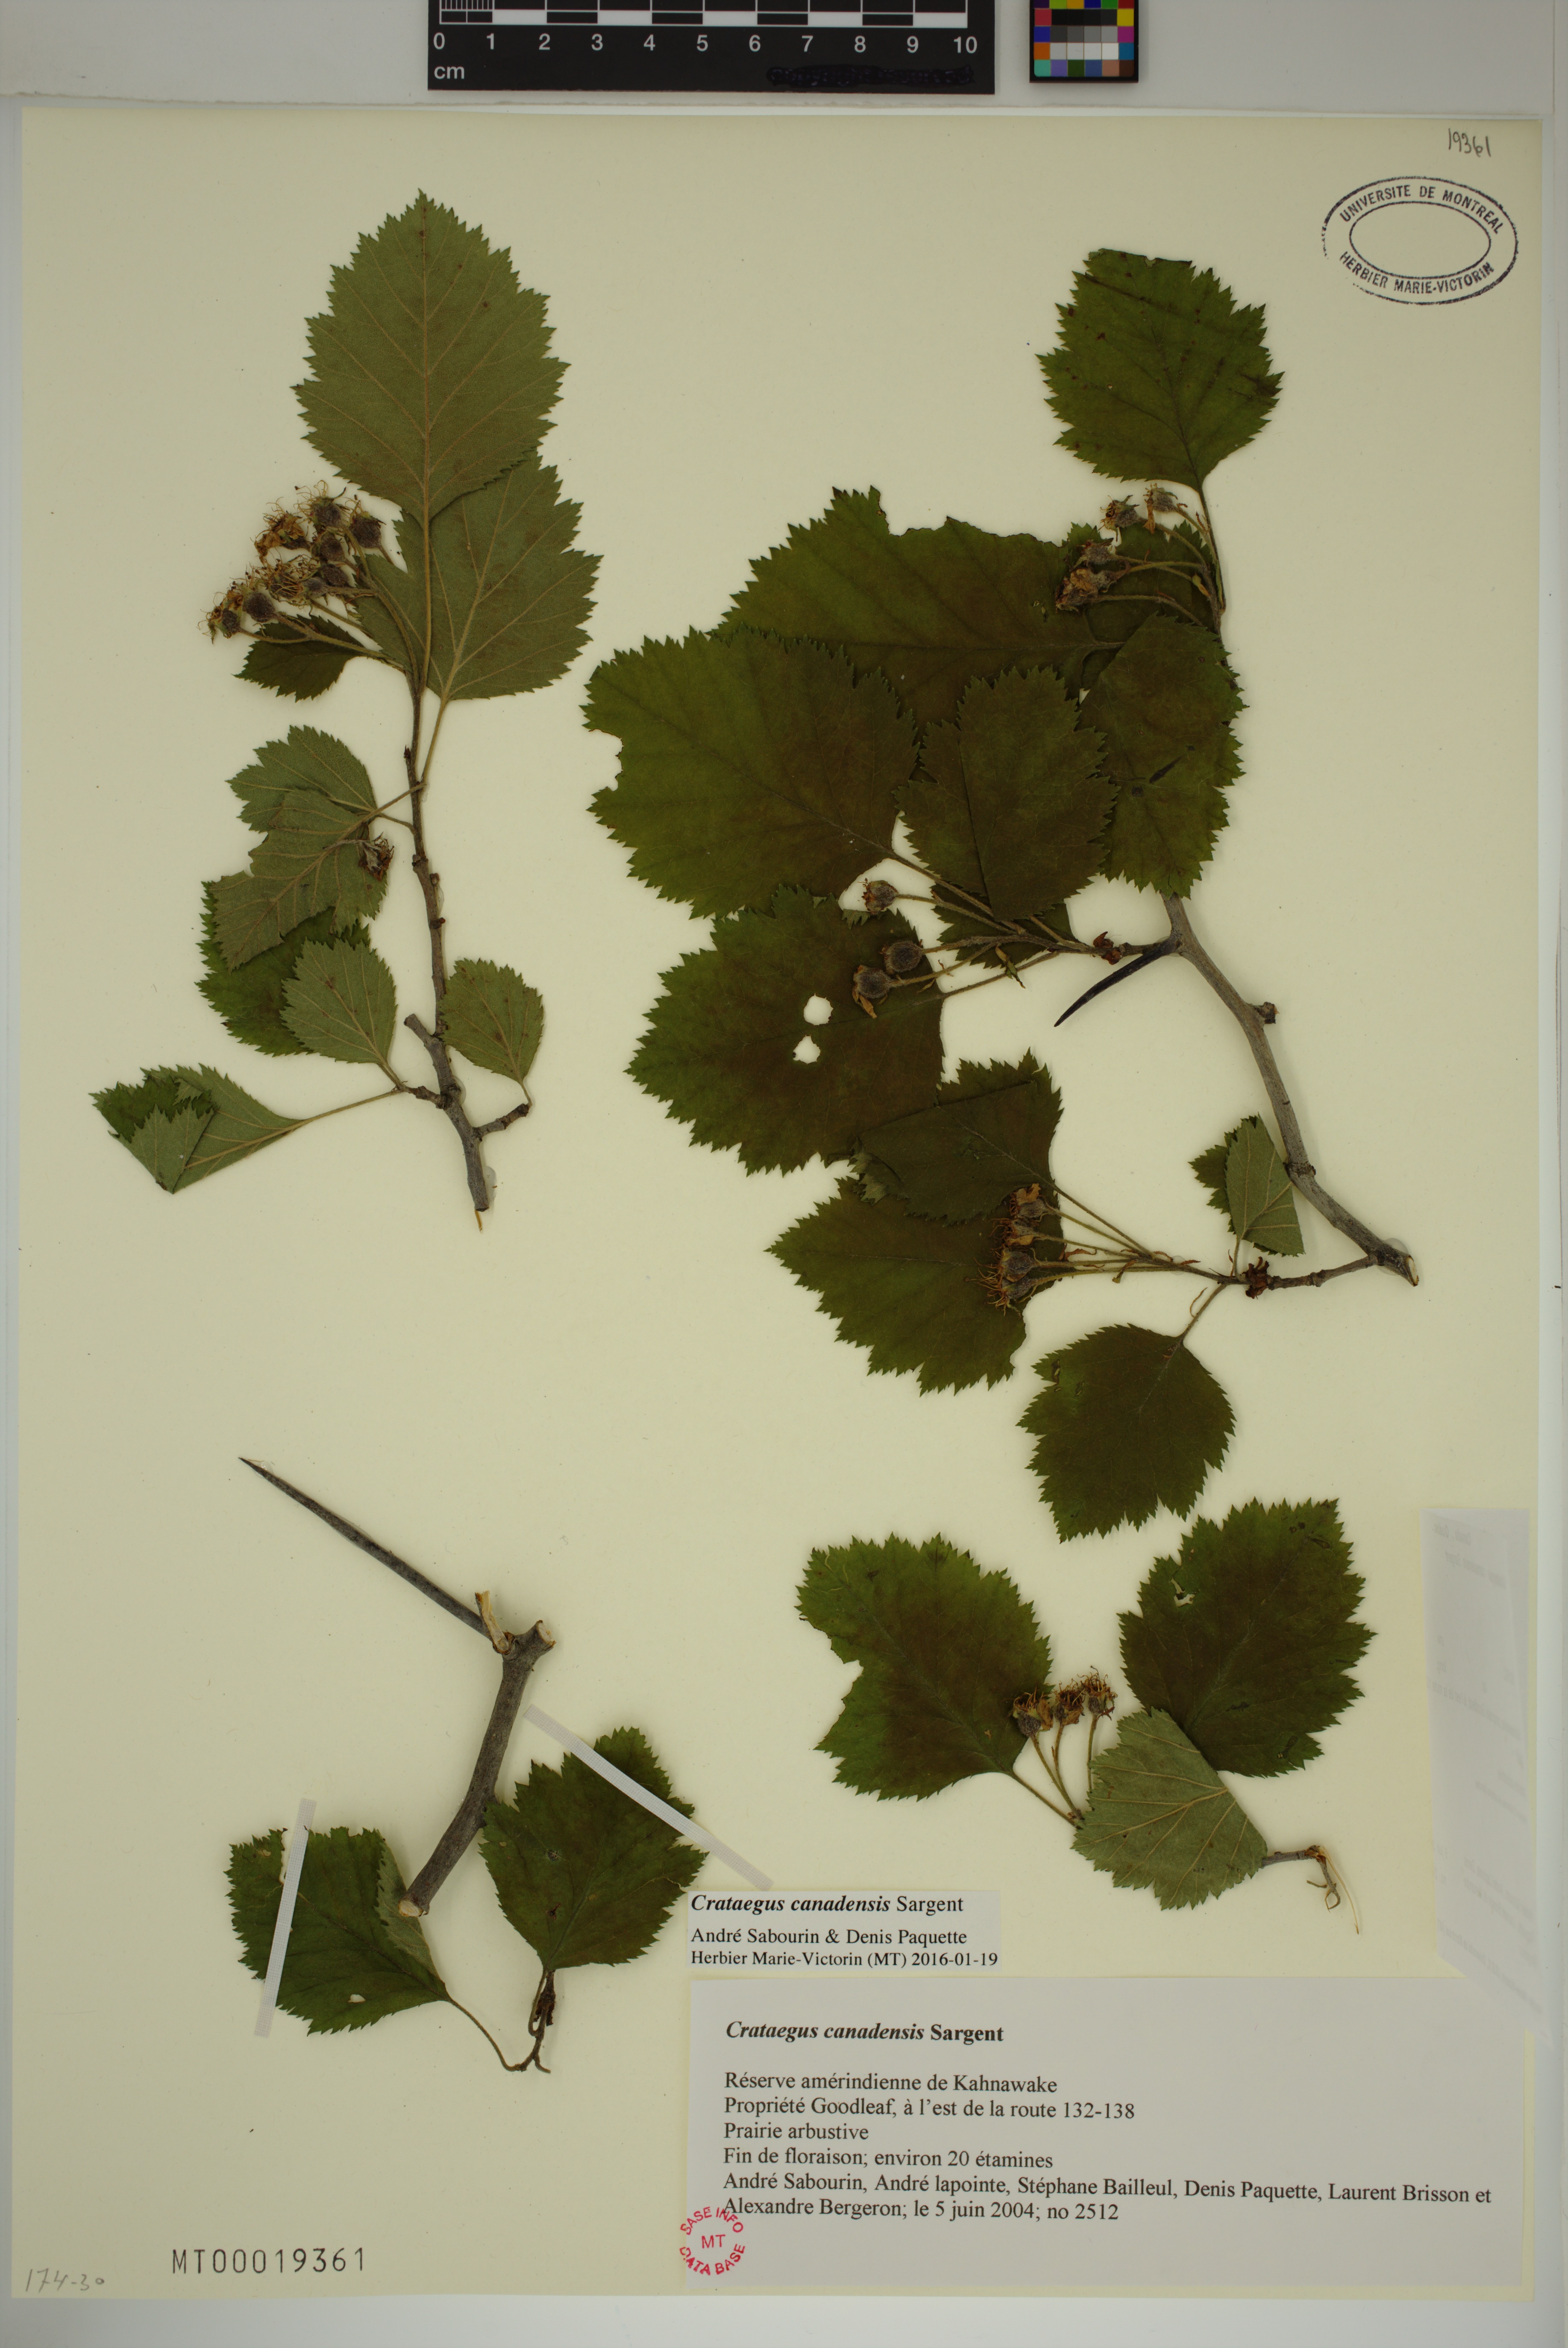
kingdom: Plantae
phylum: Tracheophyta
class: Magnoliopsida
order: Rosales
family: Rosaceae
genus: Crataegus
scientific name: Crataegus submollis
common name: Hairy cockspurthorn
